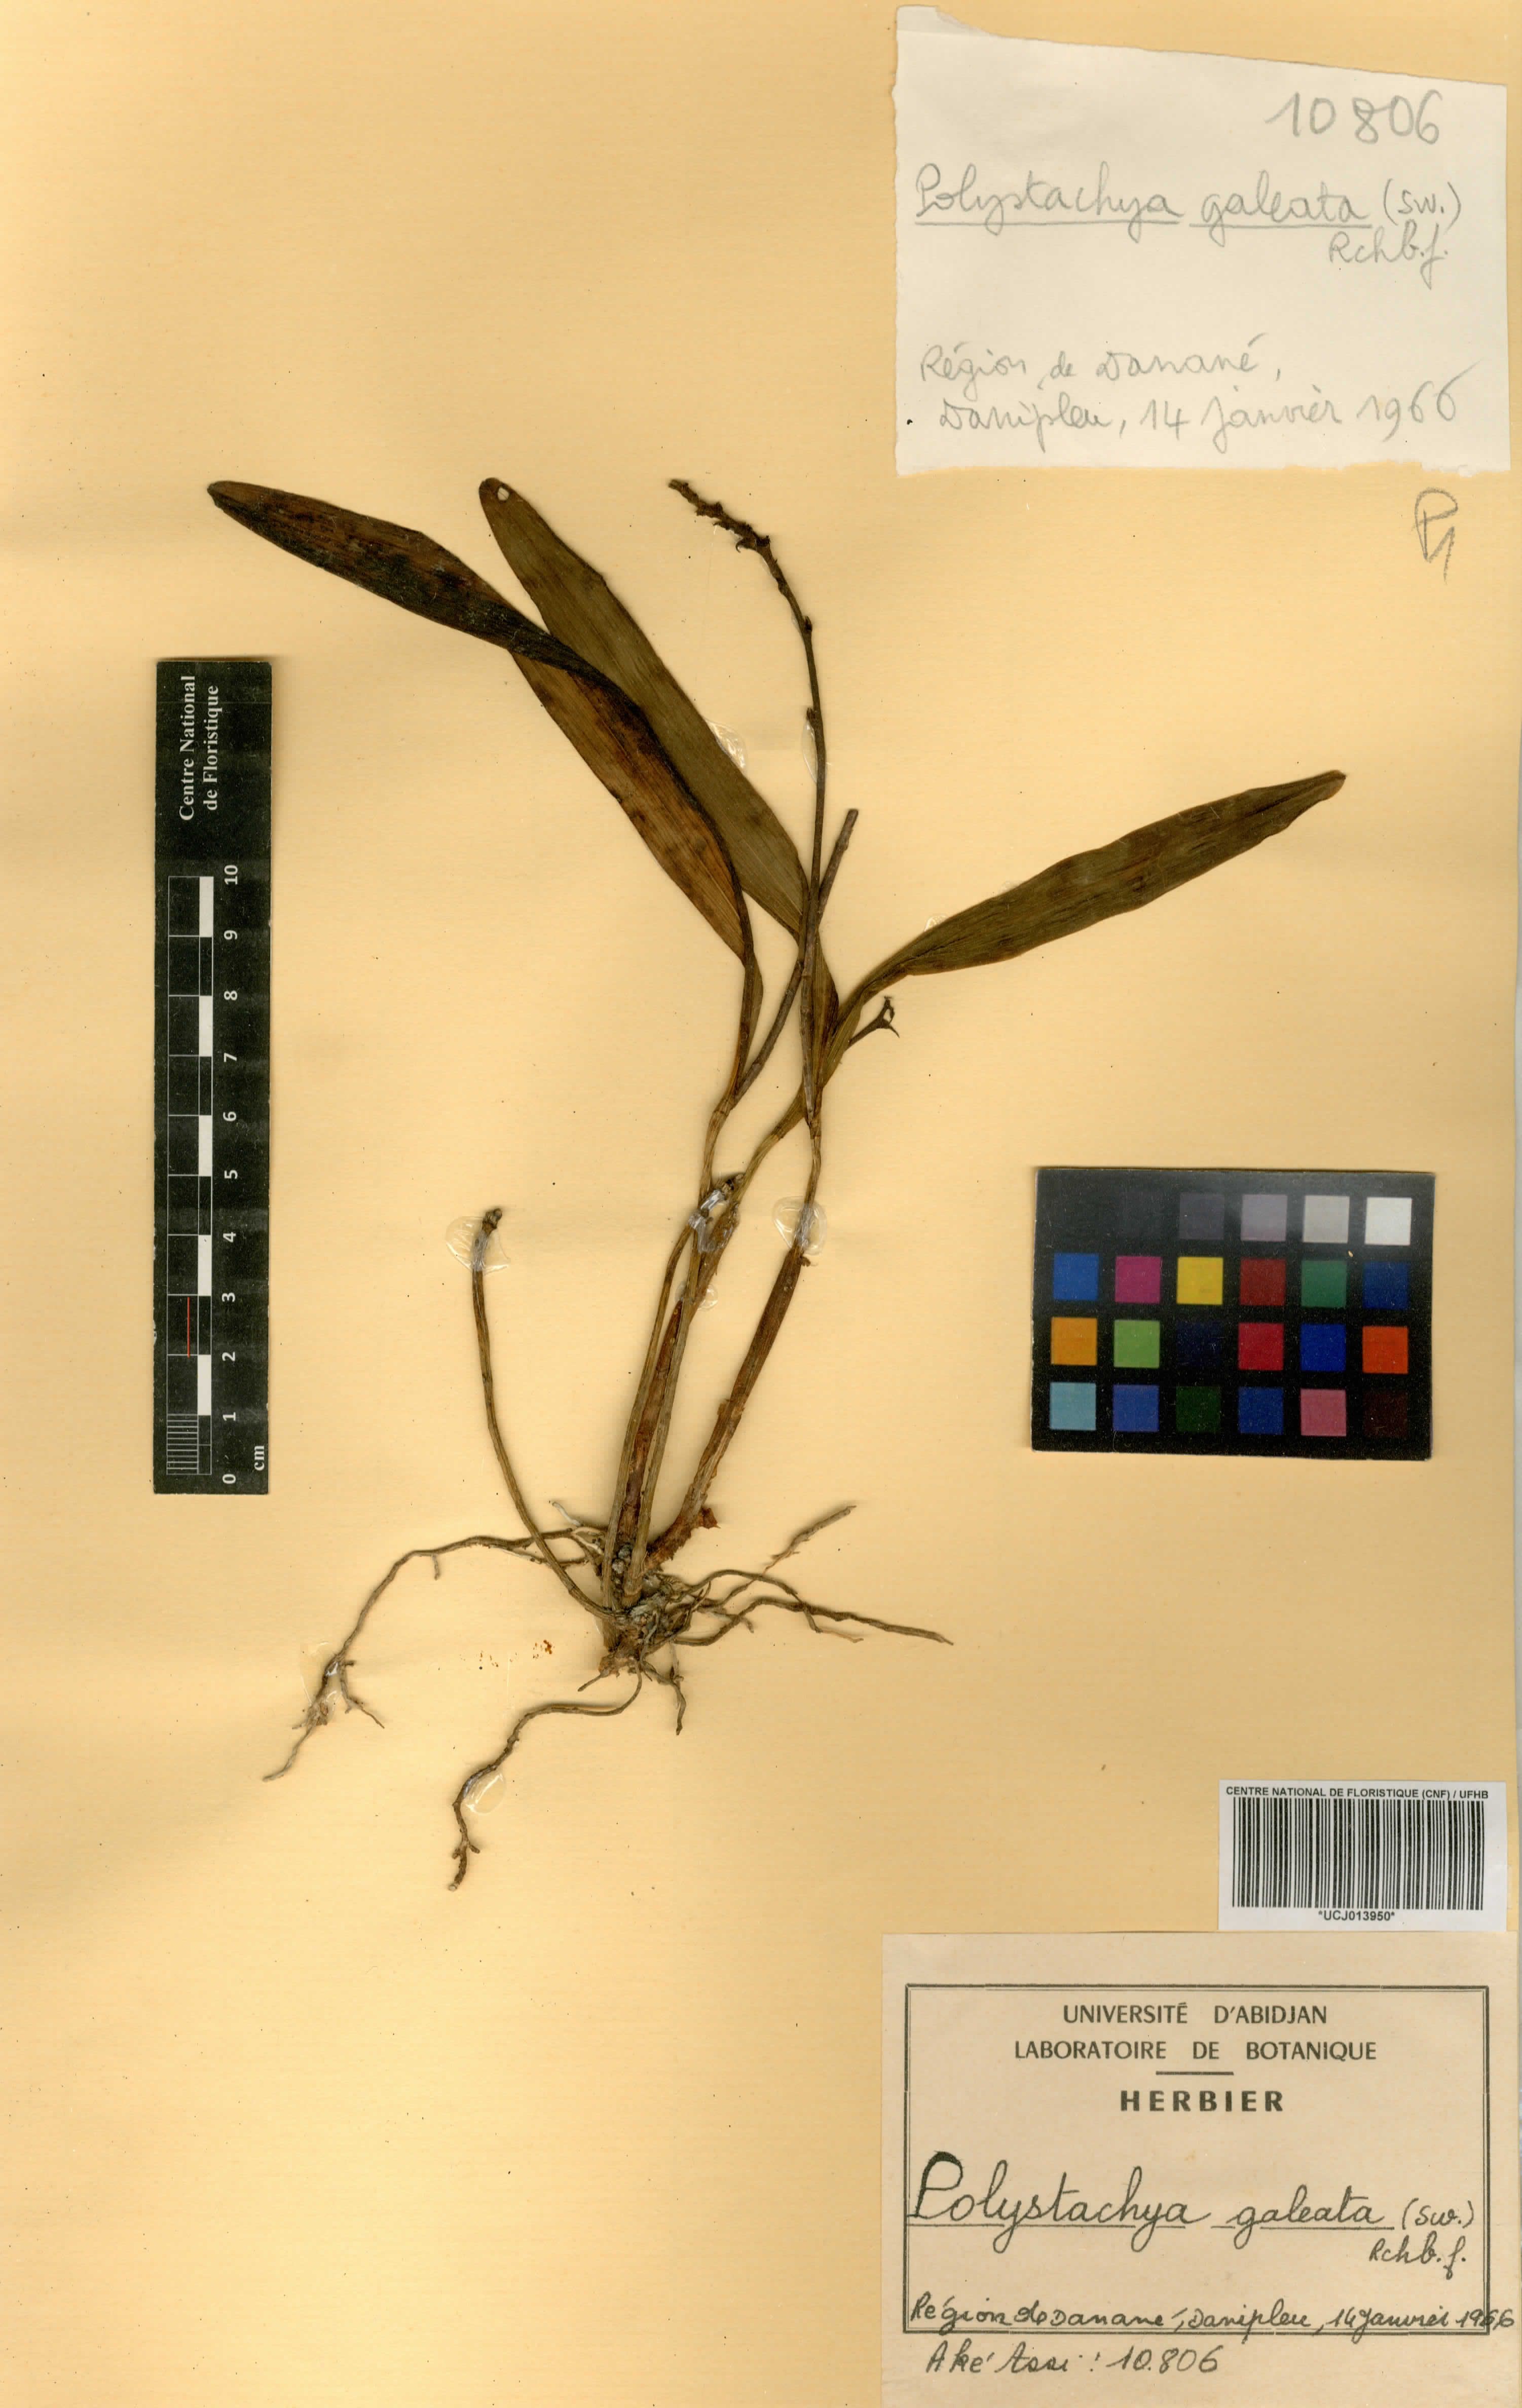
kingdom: Plantae
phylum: Tracheophyta
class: Liliopsida
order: Asparagales
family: Orchidaceae
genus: Polystachya
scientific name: Polystachya galeata
